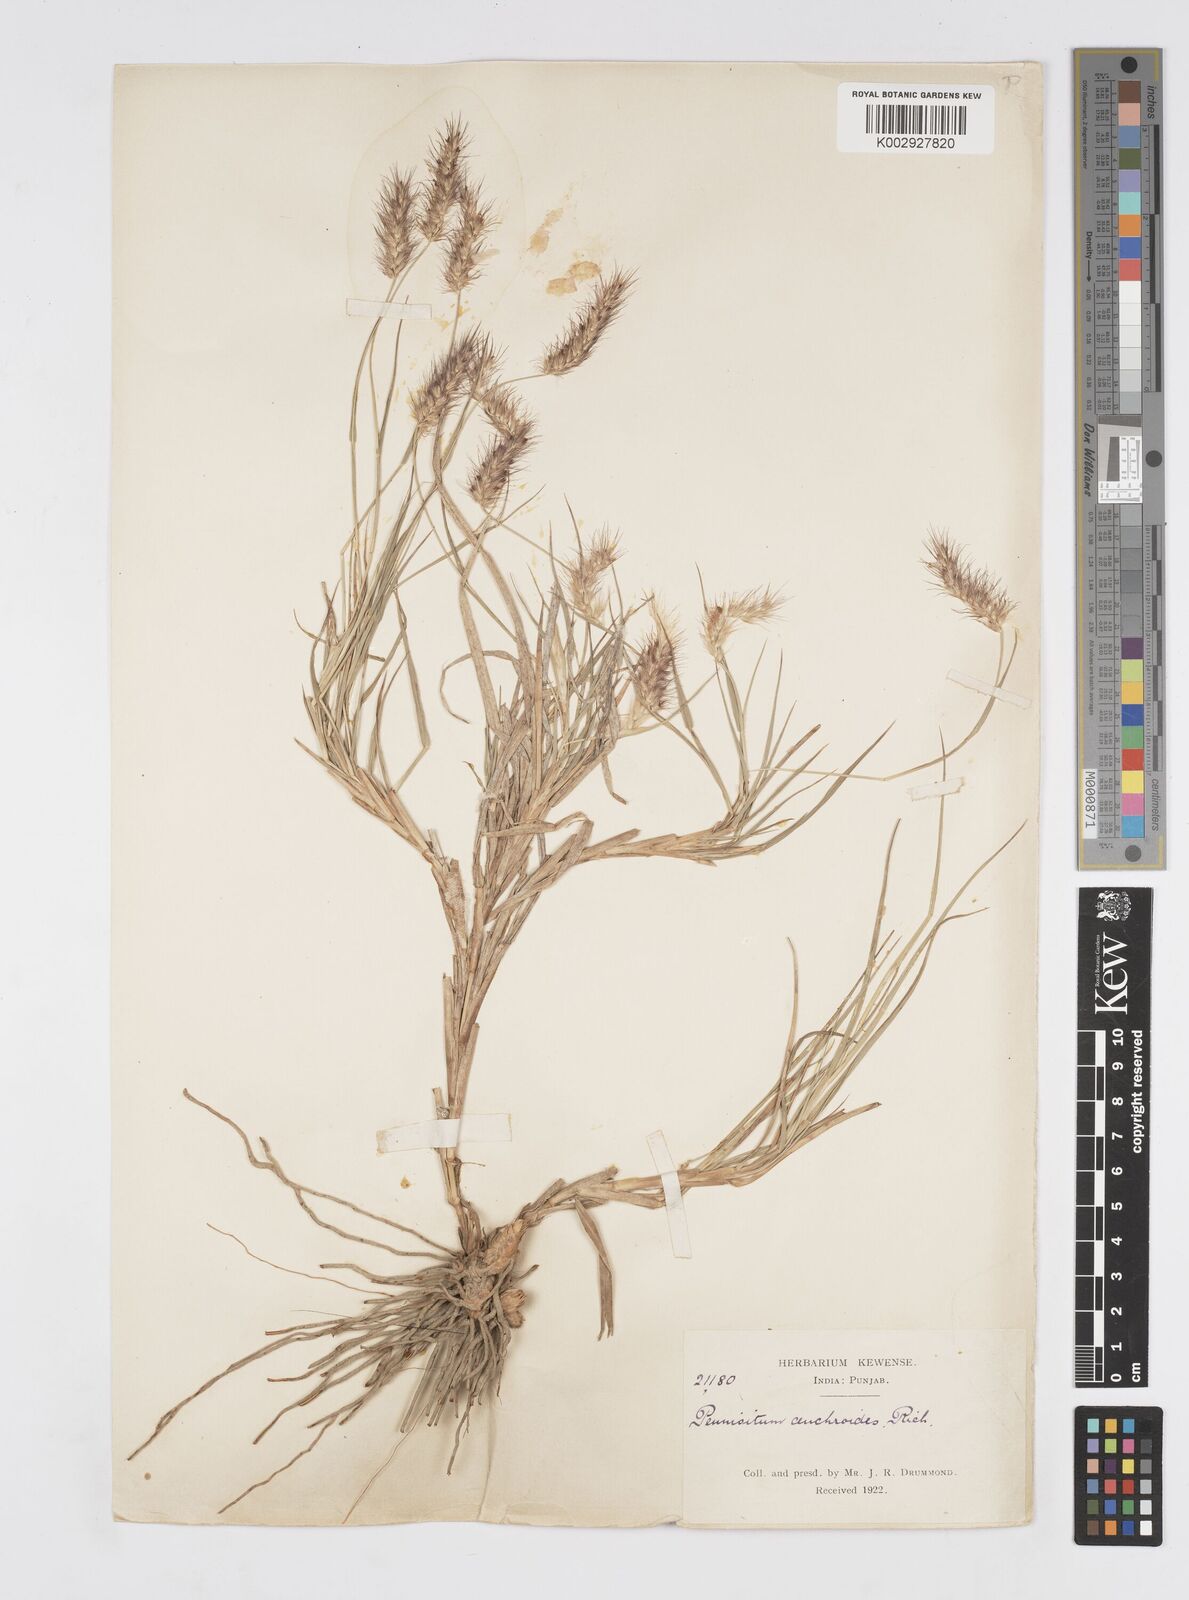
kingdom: Plantae
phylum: Tracheophyta
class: Liliopsida
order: Poales
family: Poaceae
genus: Cenchrus
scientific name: Cenchrus ciliaris
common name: Buffelgrass
